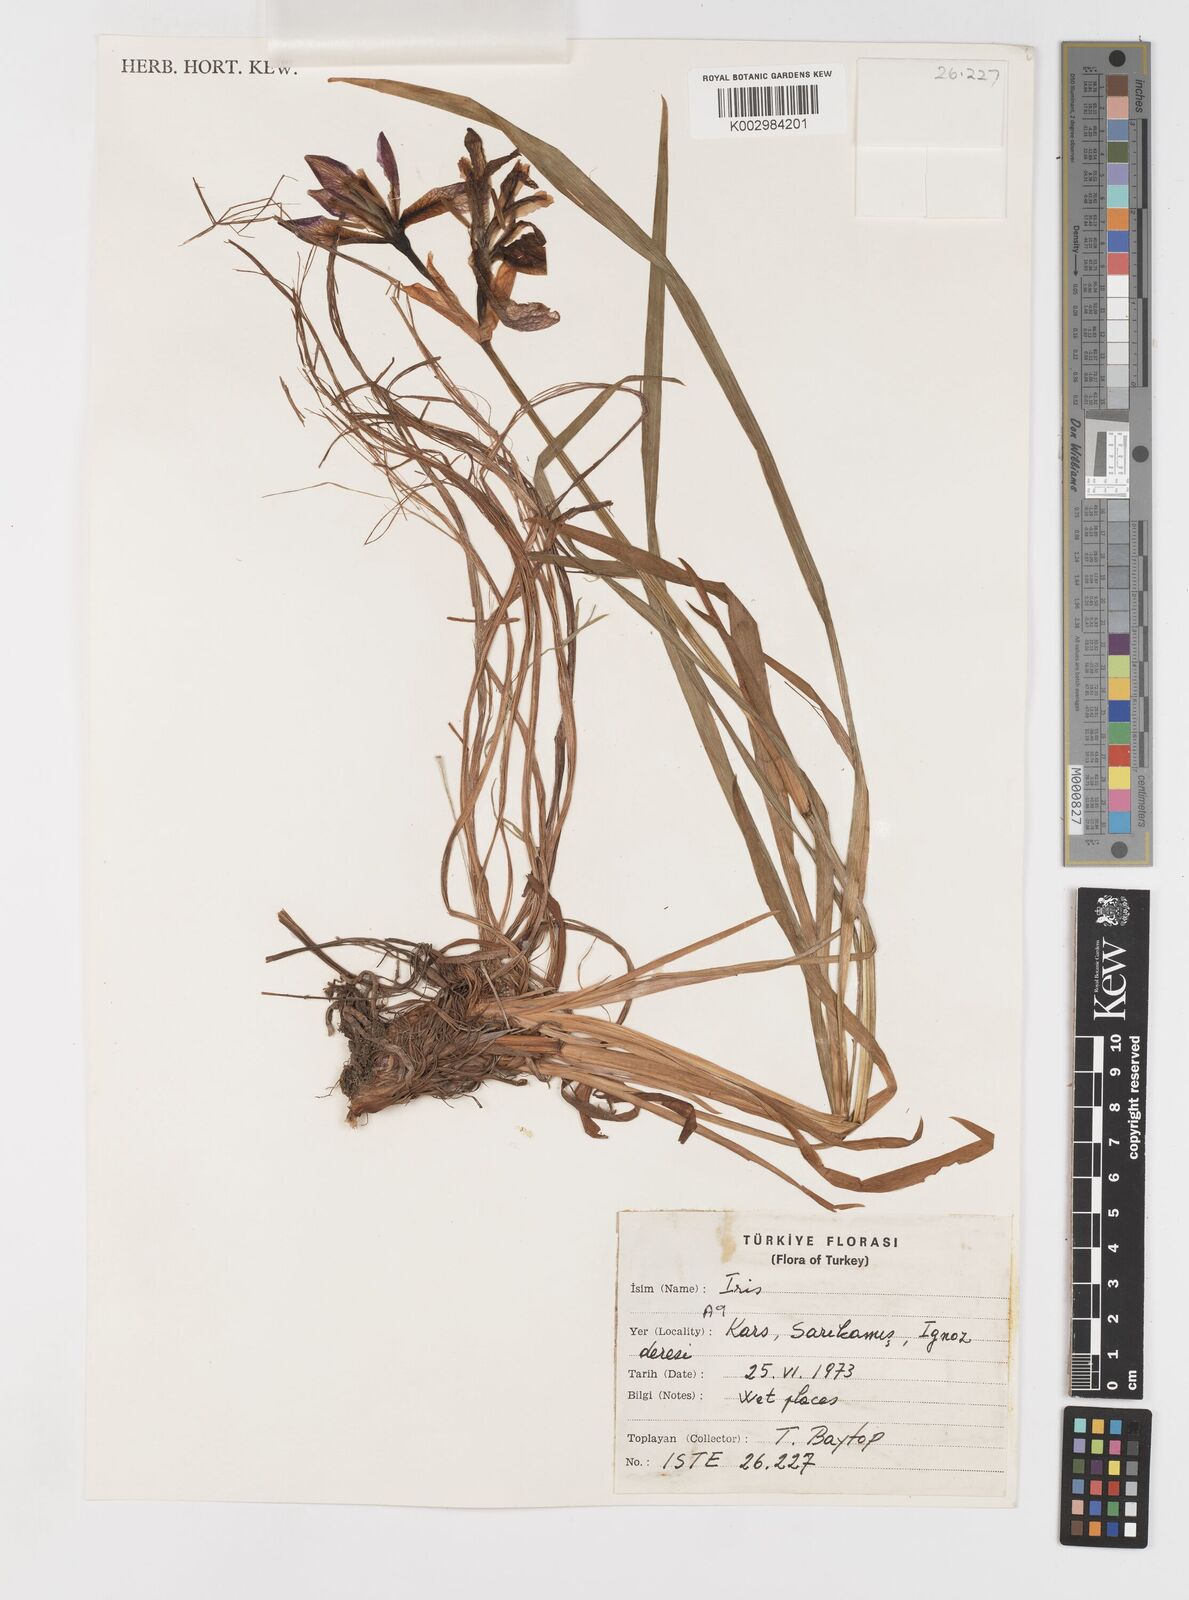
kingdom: Plantae
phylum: Tracheophyta
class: Liliopsida
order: Asparagales
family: Iridaceae
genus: Iris
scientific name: Iris sibirica
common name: Siberian iris
